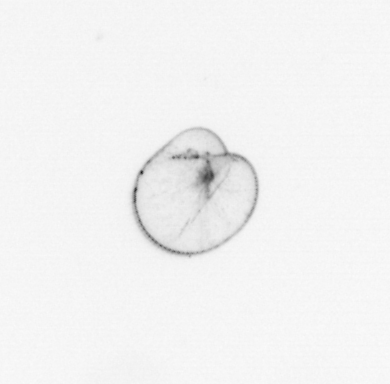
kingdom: Chromista
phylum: Myzozoa
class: Dinophyceae
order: Noctilucales
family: Noctilucaceae
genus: Noctiluca
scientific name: Noctiluca scintillans
